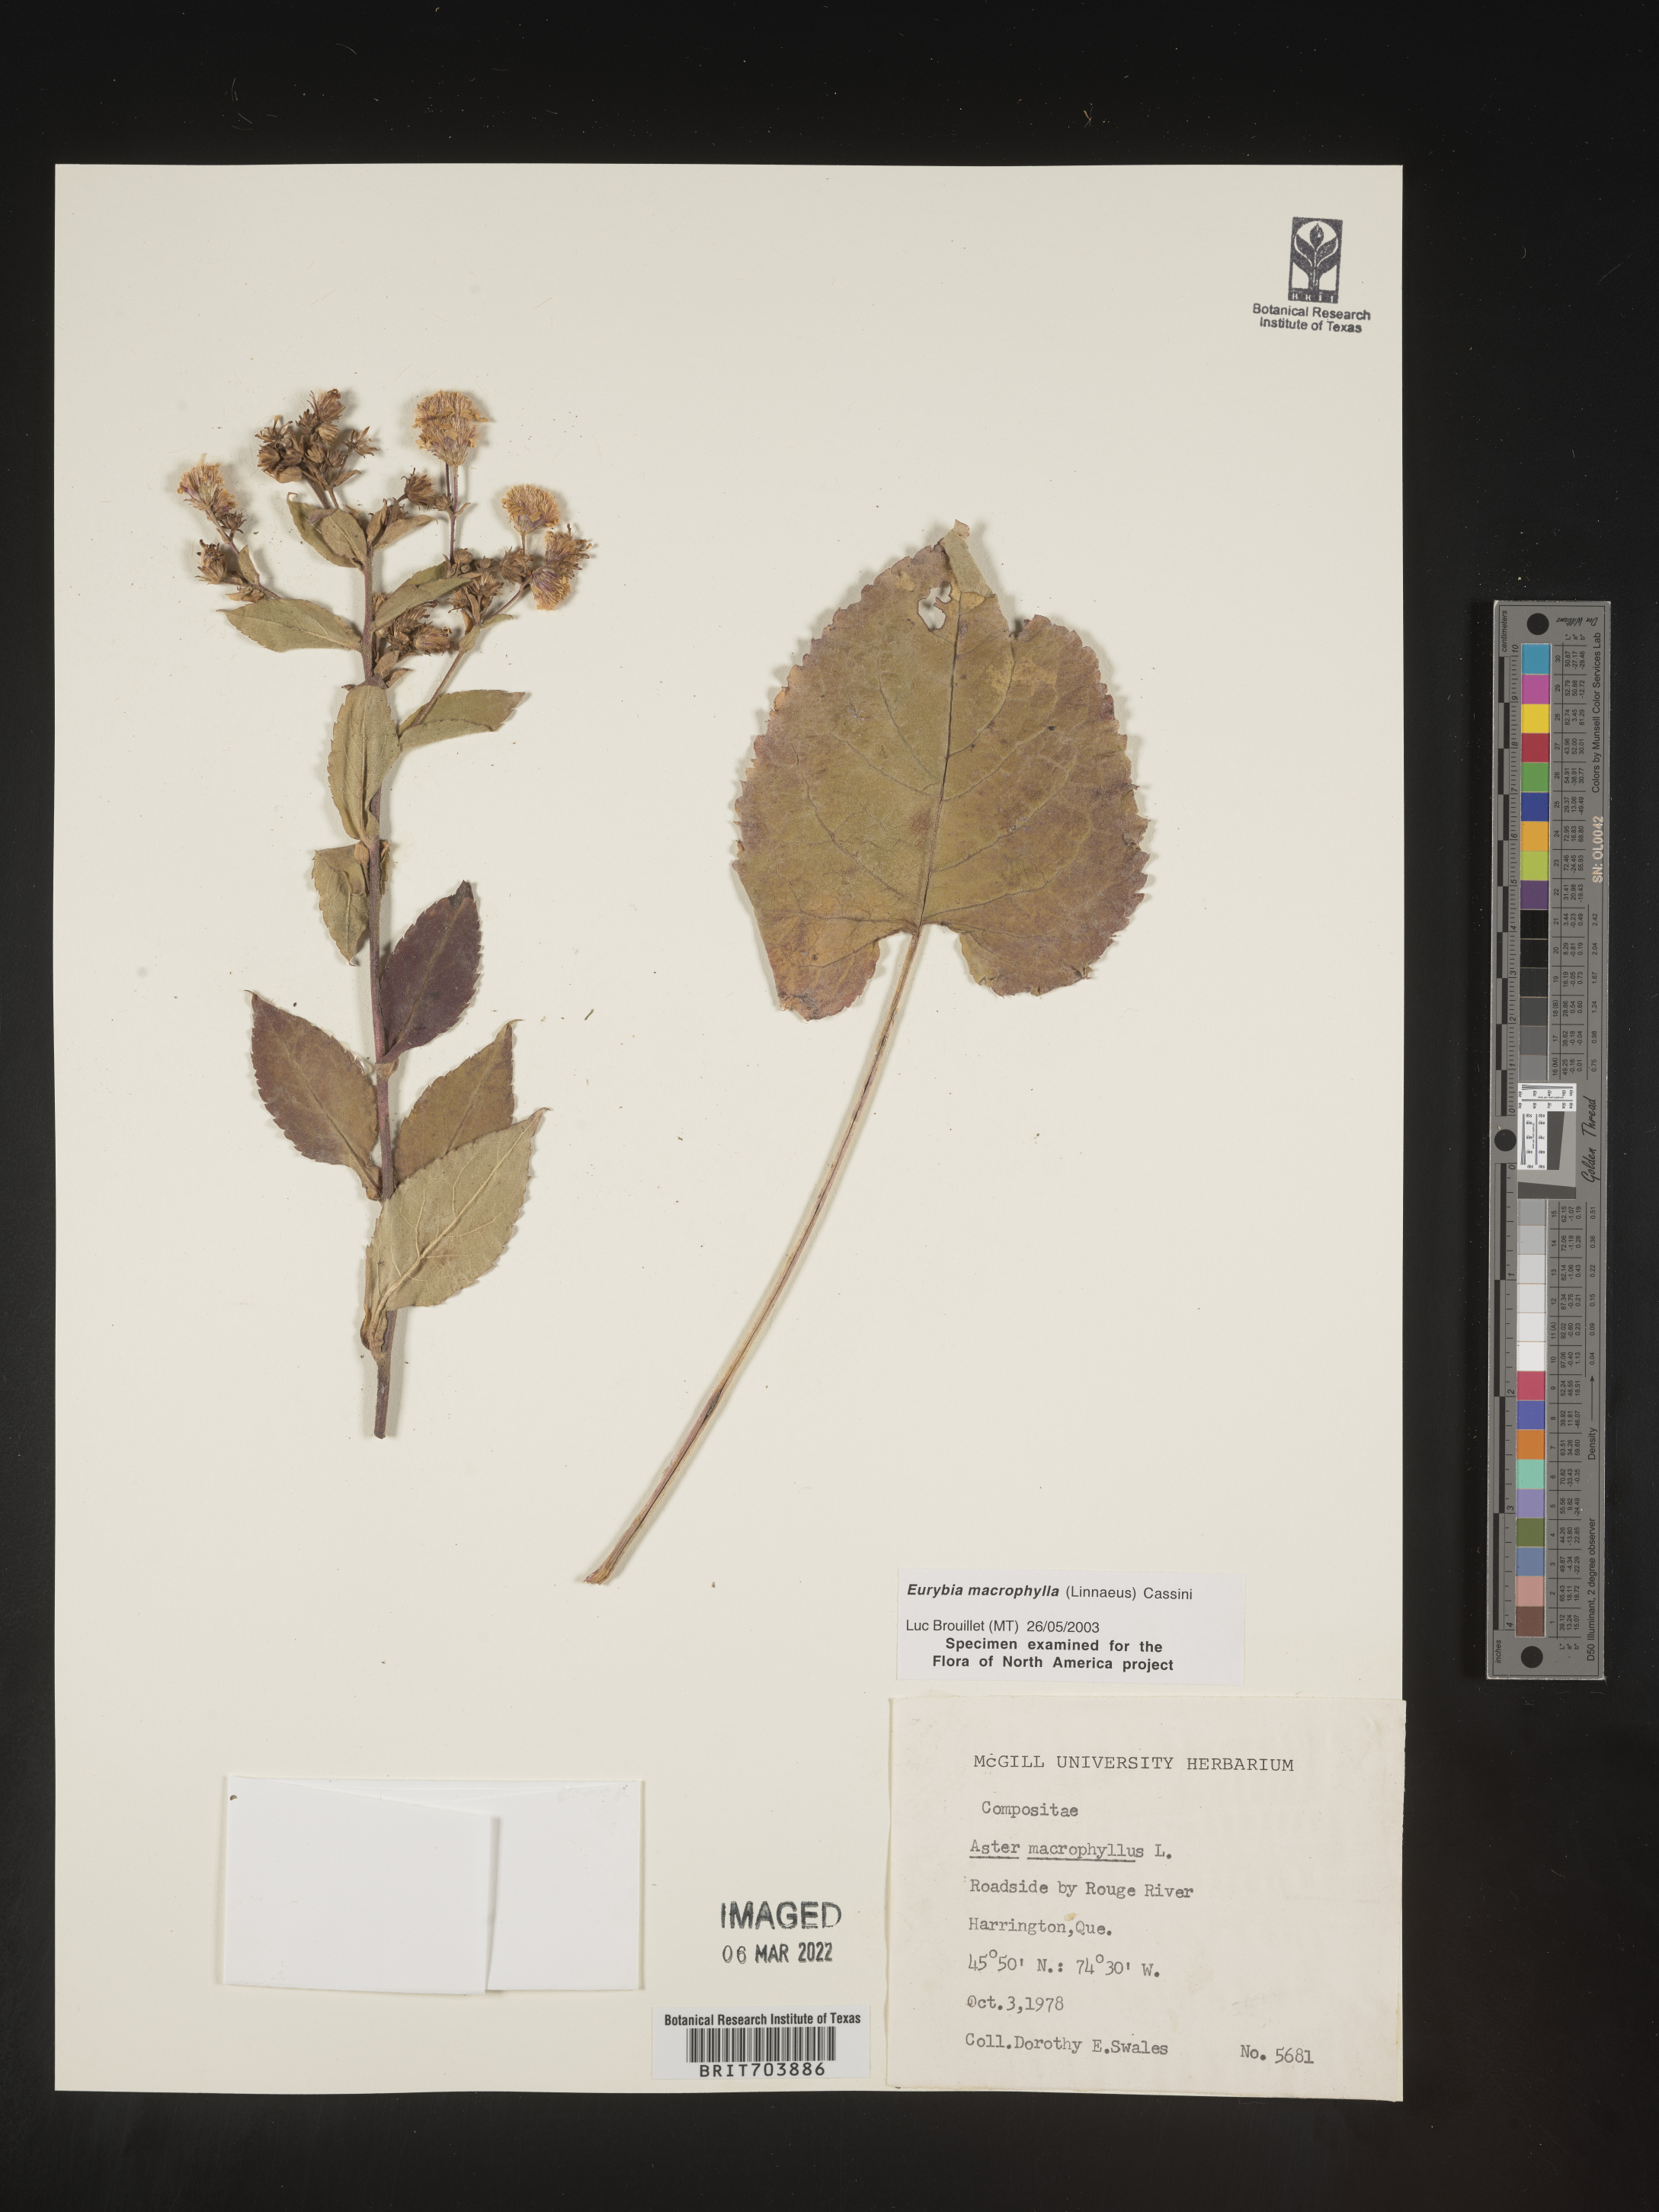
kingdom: Plantae
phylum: Tracheophyta
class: Magnoliopsida
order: Asterales
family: Asteraceae
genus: Eurybia
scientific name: Eurybia macrophylla
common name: Big-leaved aster
